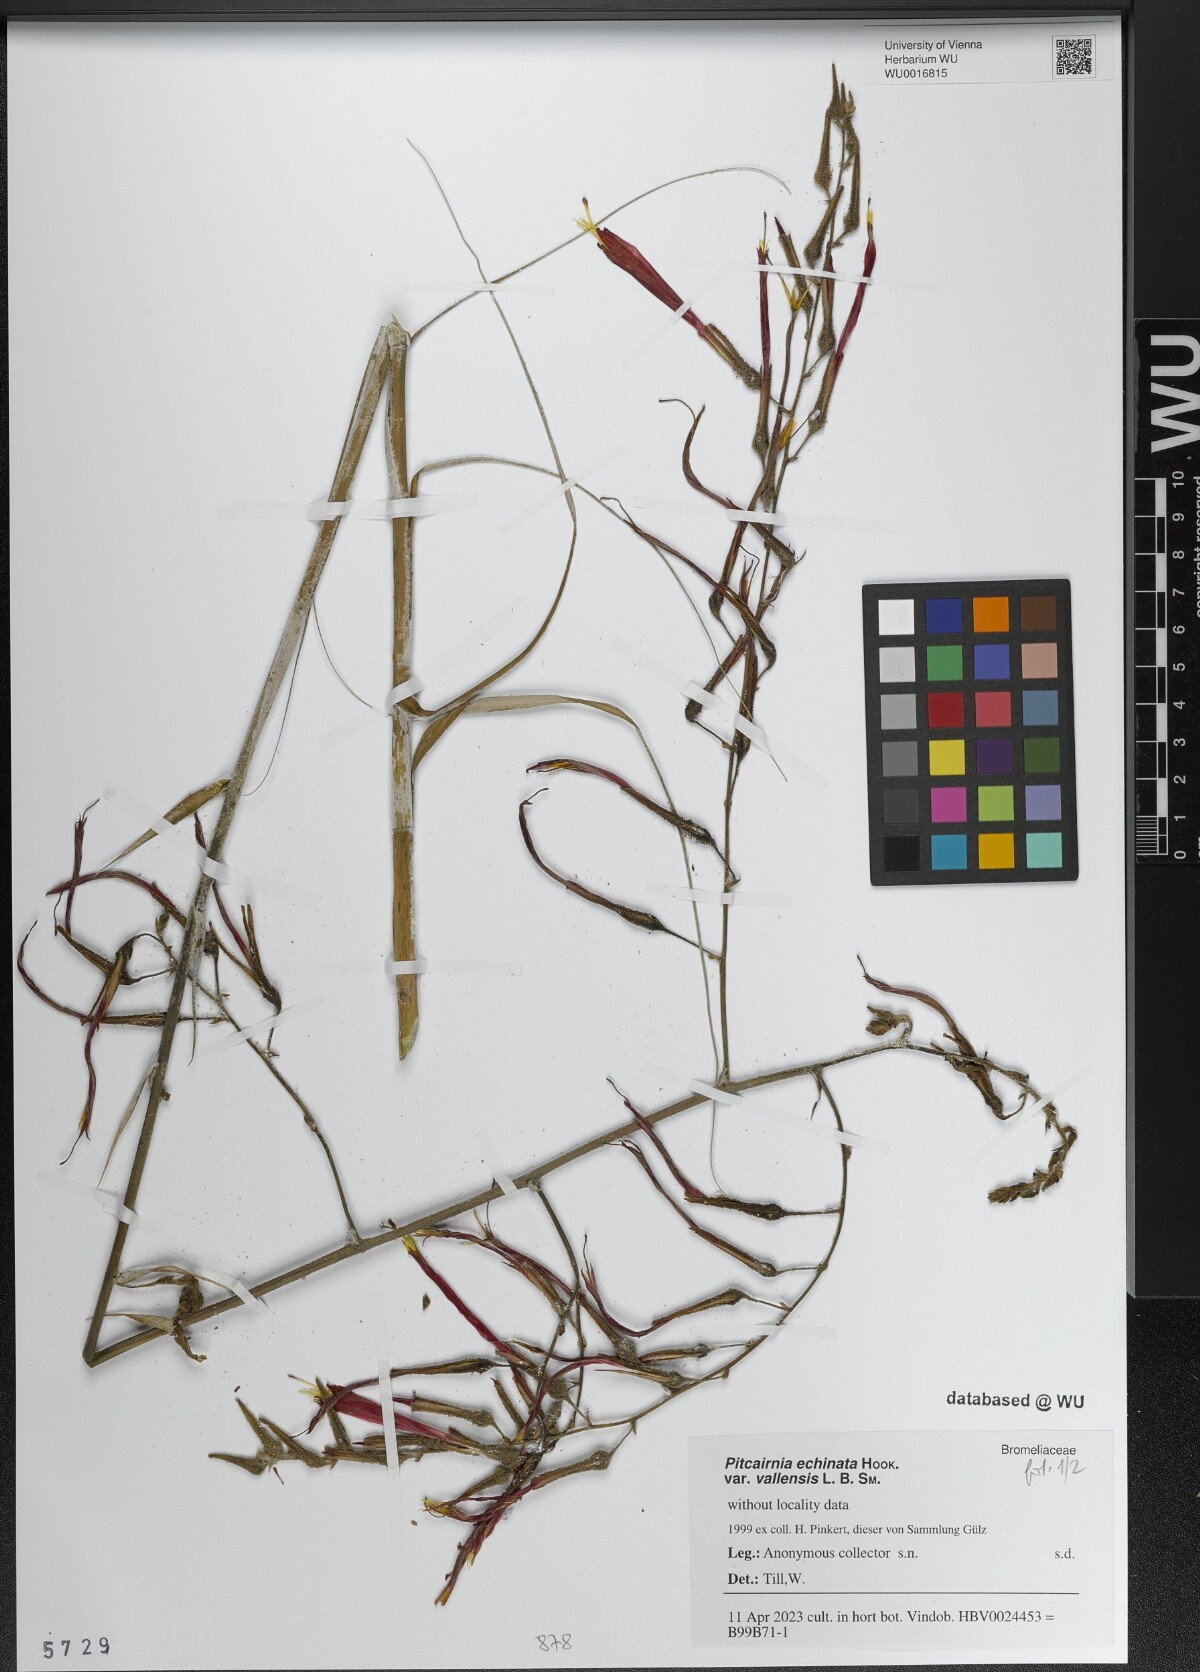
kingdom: Plantae
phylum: Tracheophyta
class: Liliopsida
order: Poales
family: Bromeliaceae
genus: Pitcairnia
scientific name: Pitcairnia echinata
